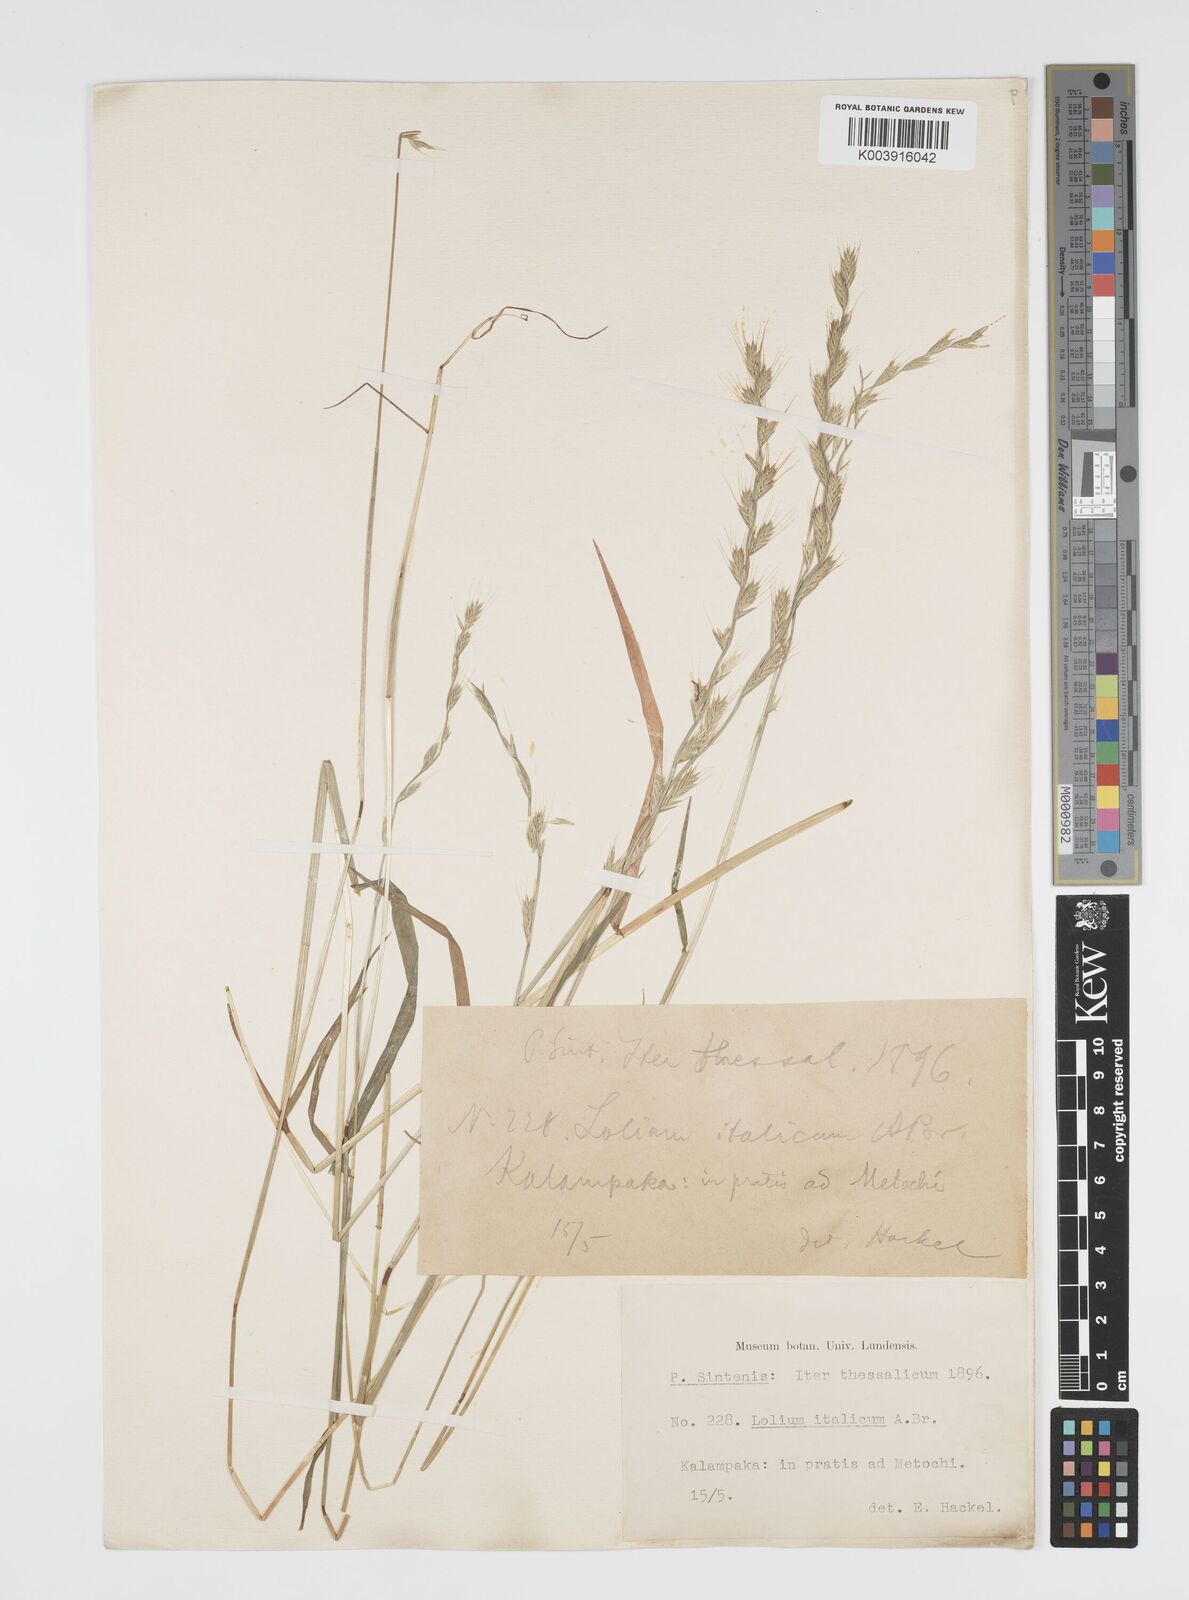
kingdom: Plantae
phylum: Tracheophyta
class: Liliopsida
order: Poales
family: Poaceae
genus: Lolium
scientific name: Lolium multiflorum
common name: Annual ryegrass
